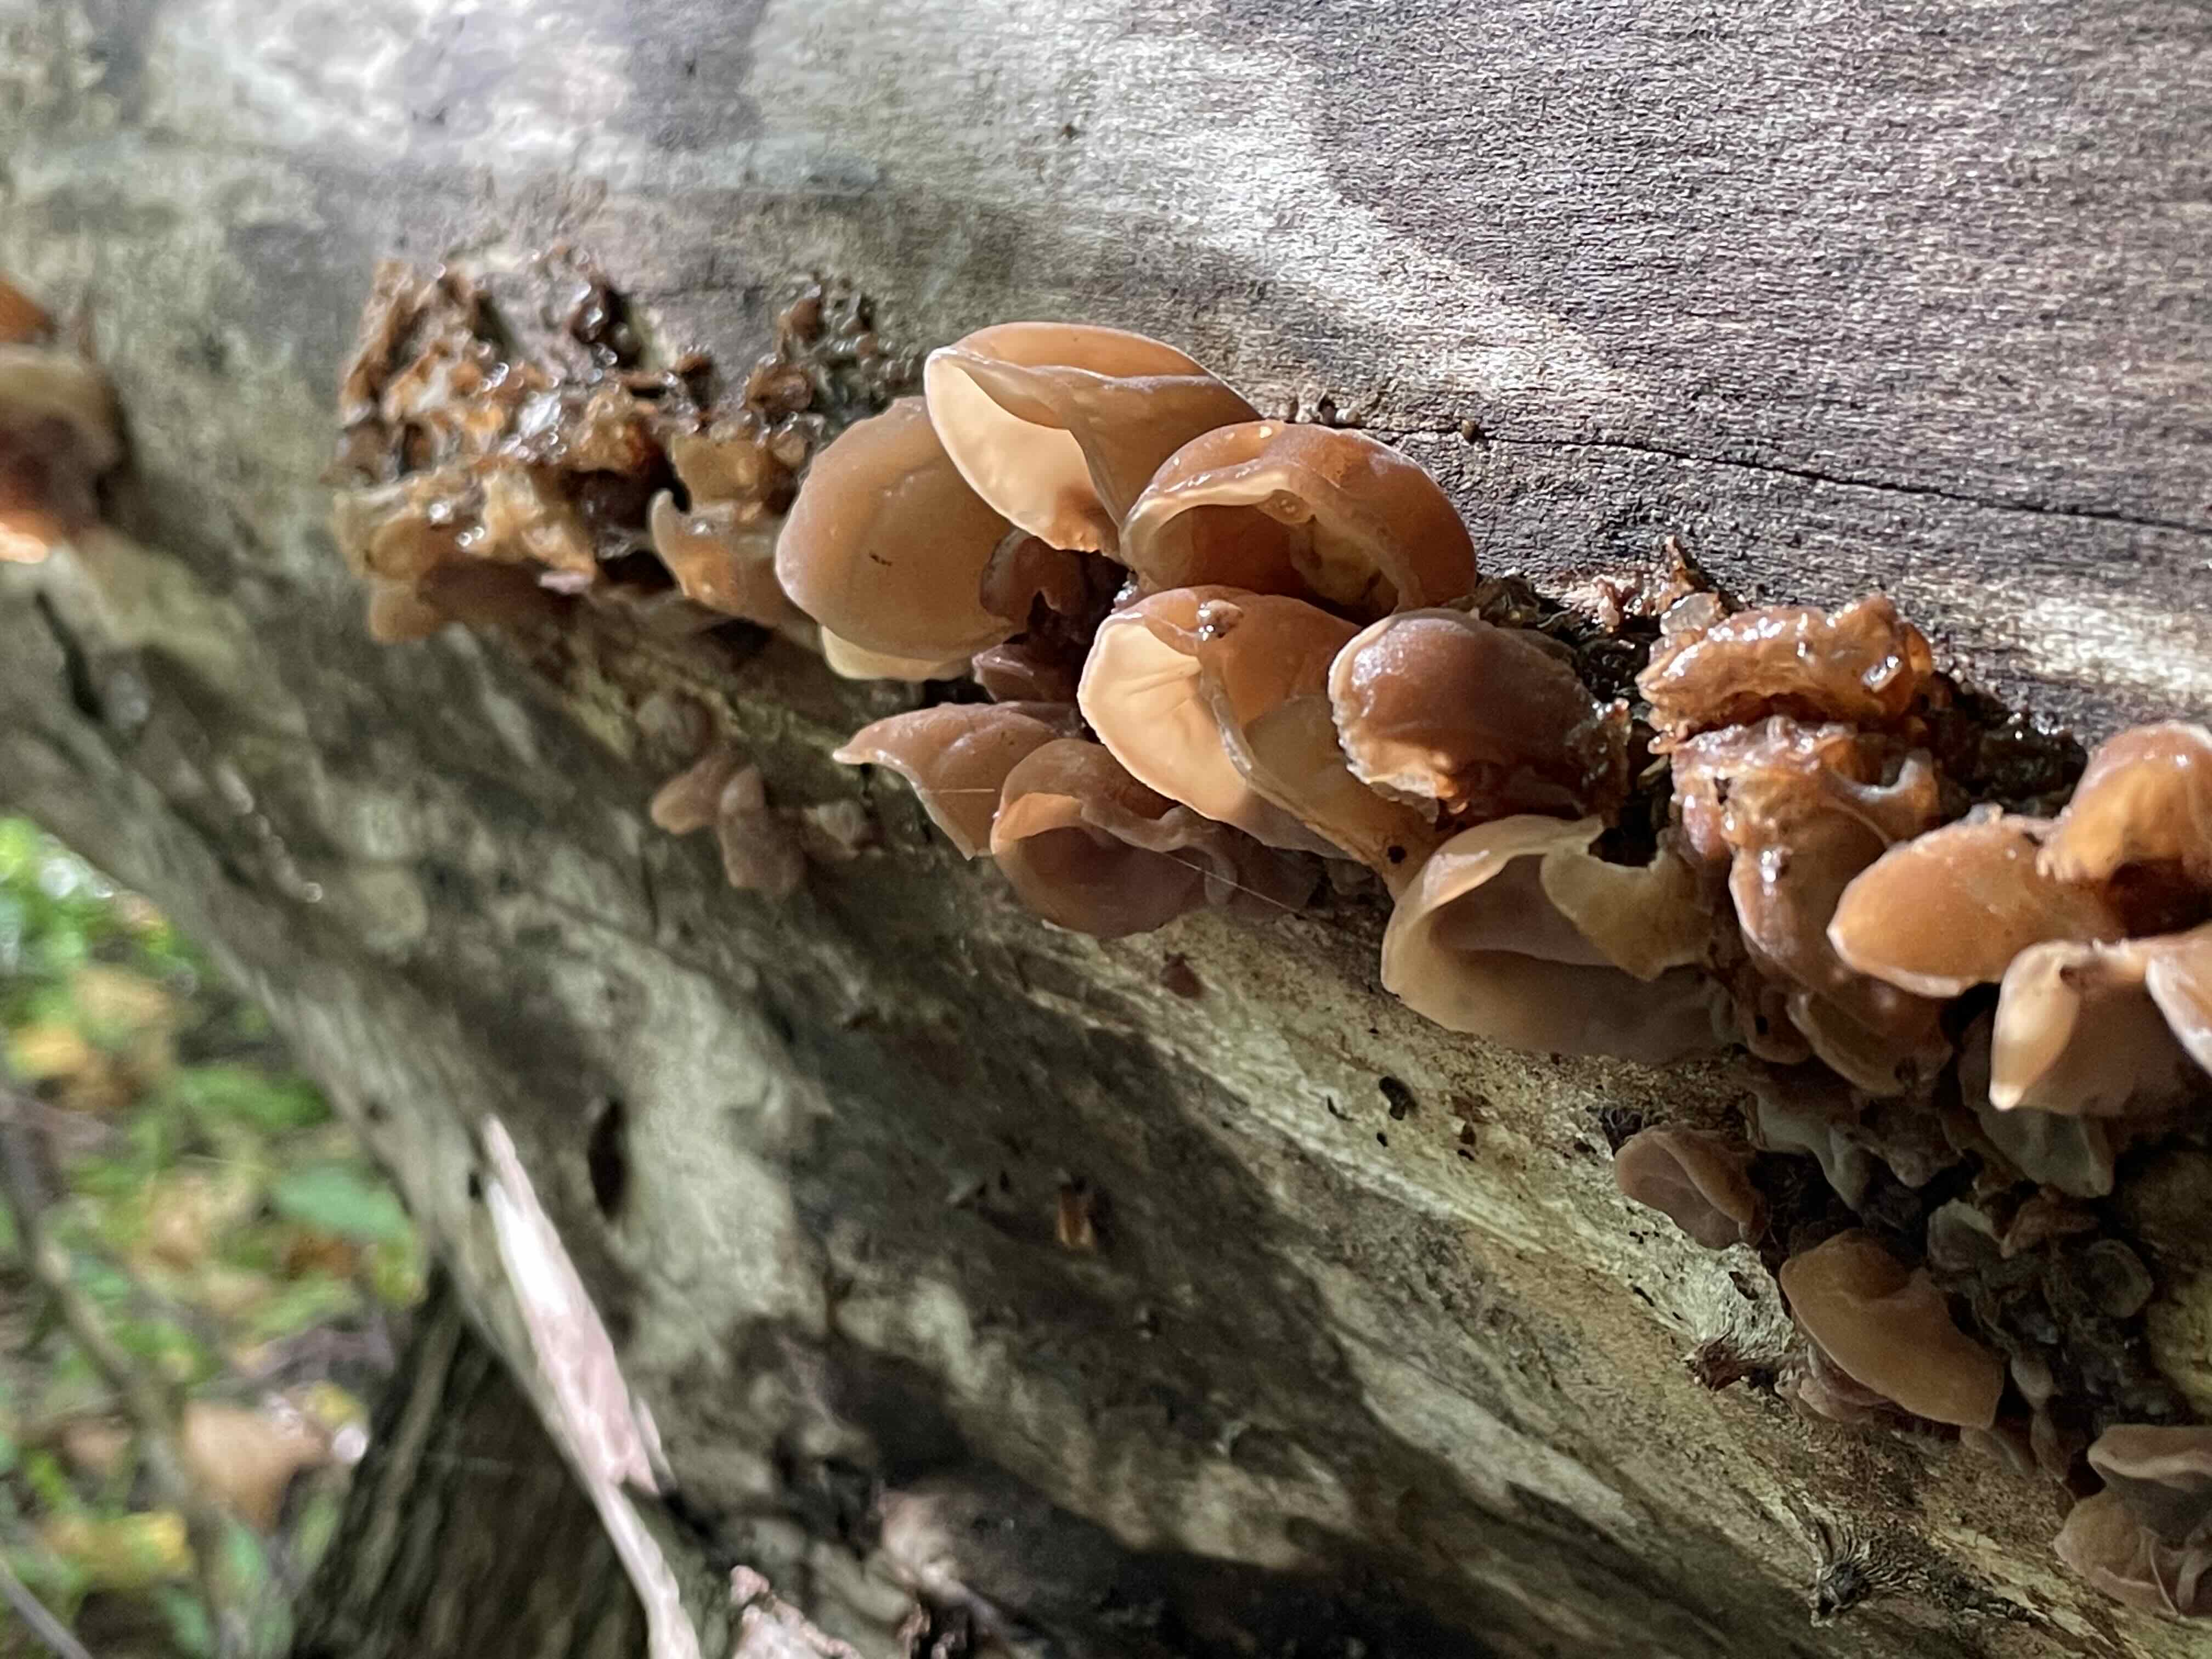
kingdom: Fungi
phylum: Basidiomycota
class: Agaricomycetes
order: Auriculariales
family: Auriculariaceae
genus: Auricularia
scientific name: Auricularia auricula-judae
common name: almindelig judasøre
